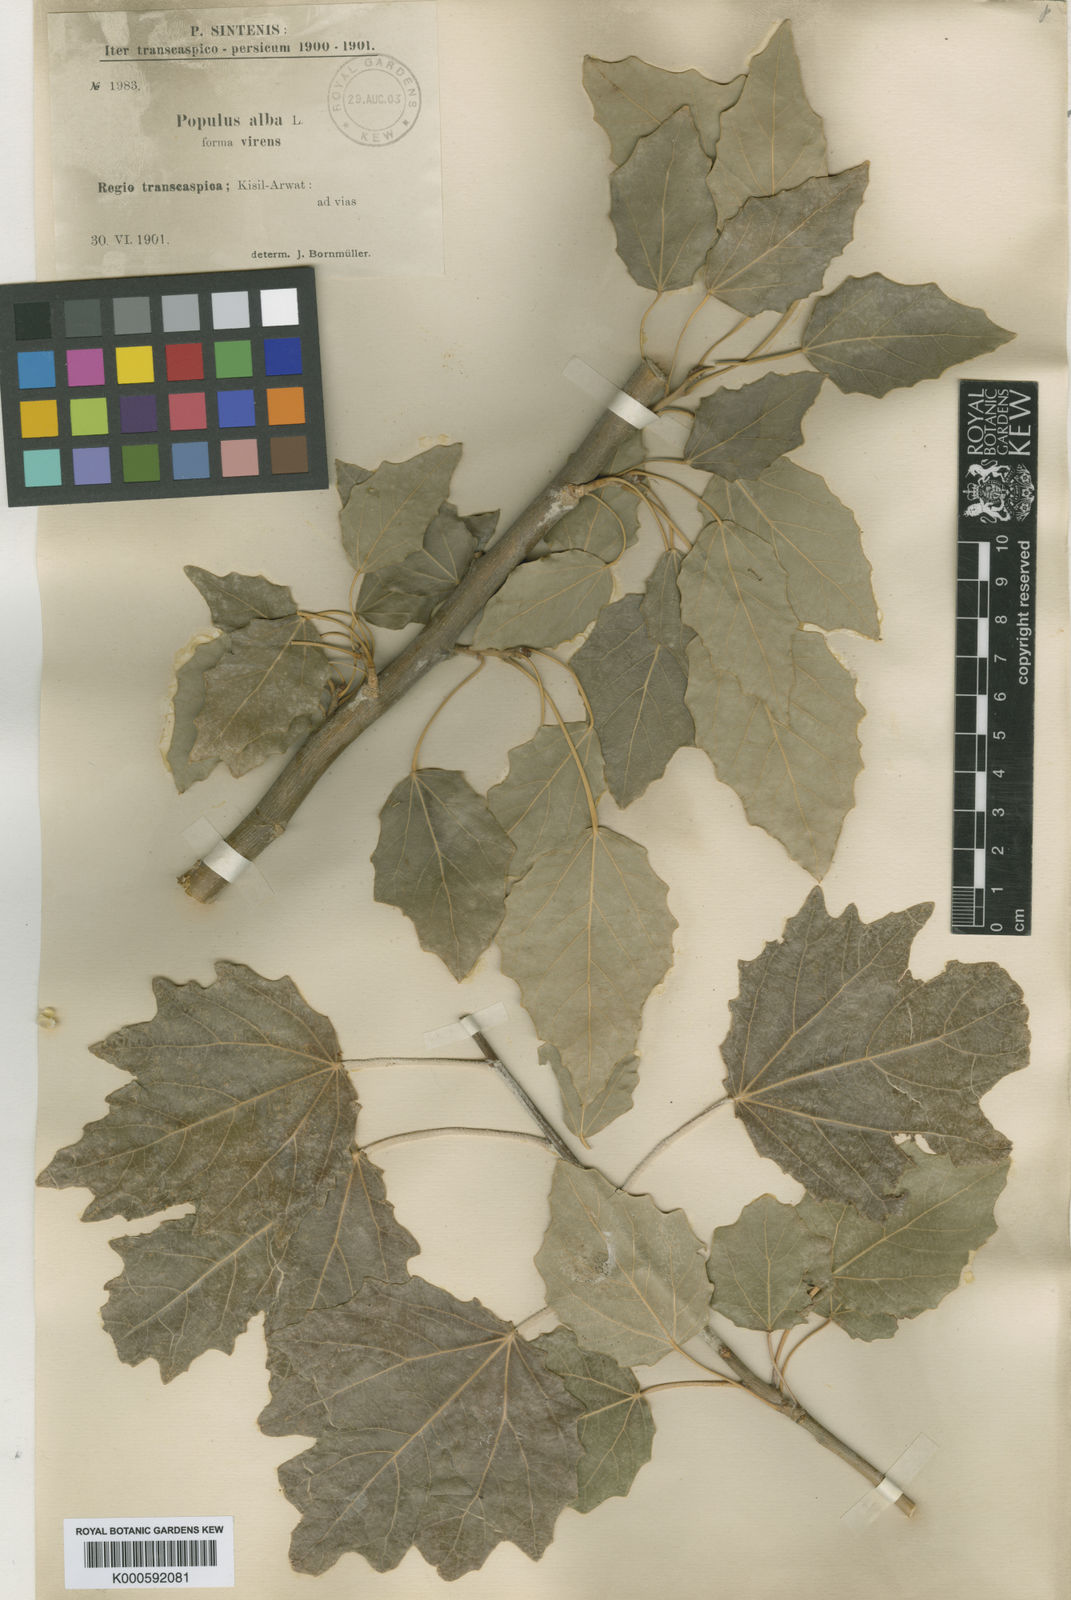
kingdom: Plantae
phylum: Tracheophyta
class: Magnoliopsida
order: Malpighiales
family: Salicaceae
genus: Populus
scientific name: Populus alba
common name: White poplar
